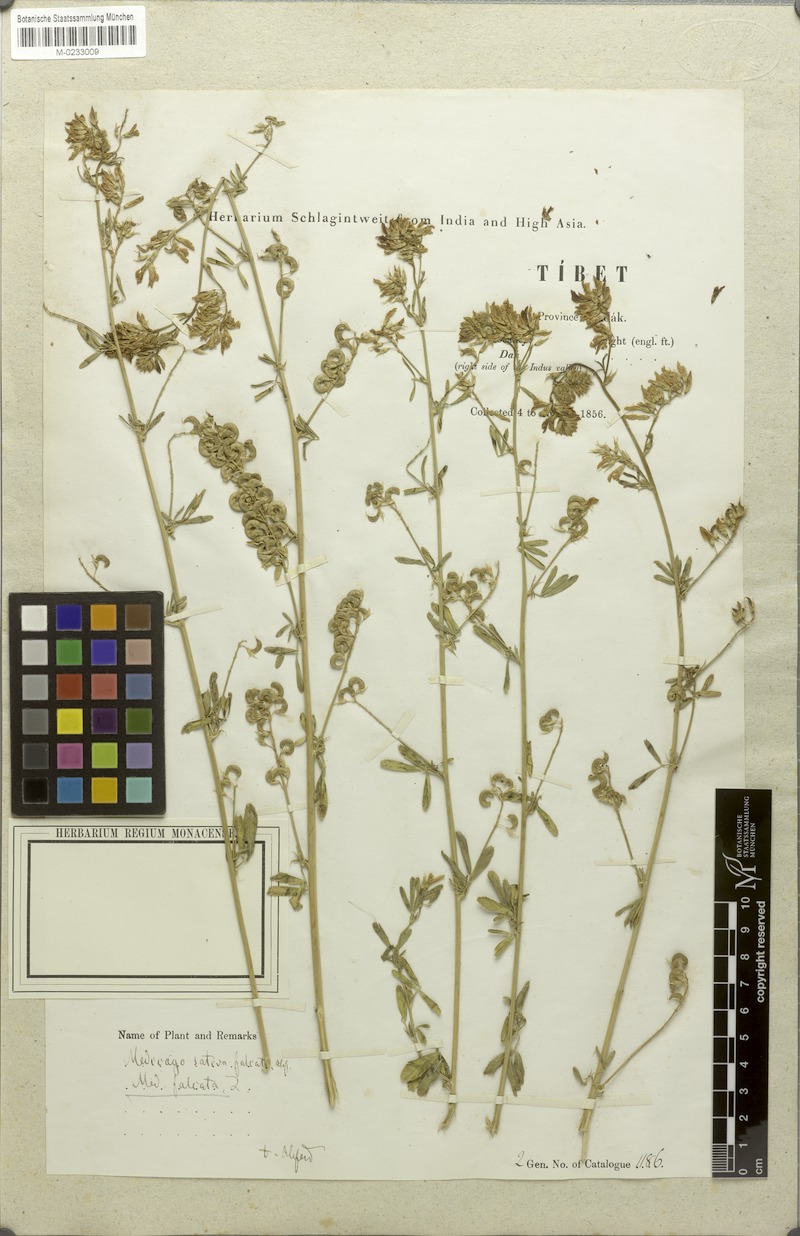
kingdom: Plantae
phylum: Tracheophyta
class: Magnoliopsida
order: Fabales
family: Fabaceae
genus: Medicago
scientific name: Medicago falcata
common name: Sickle medick
